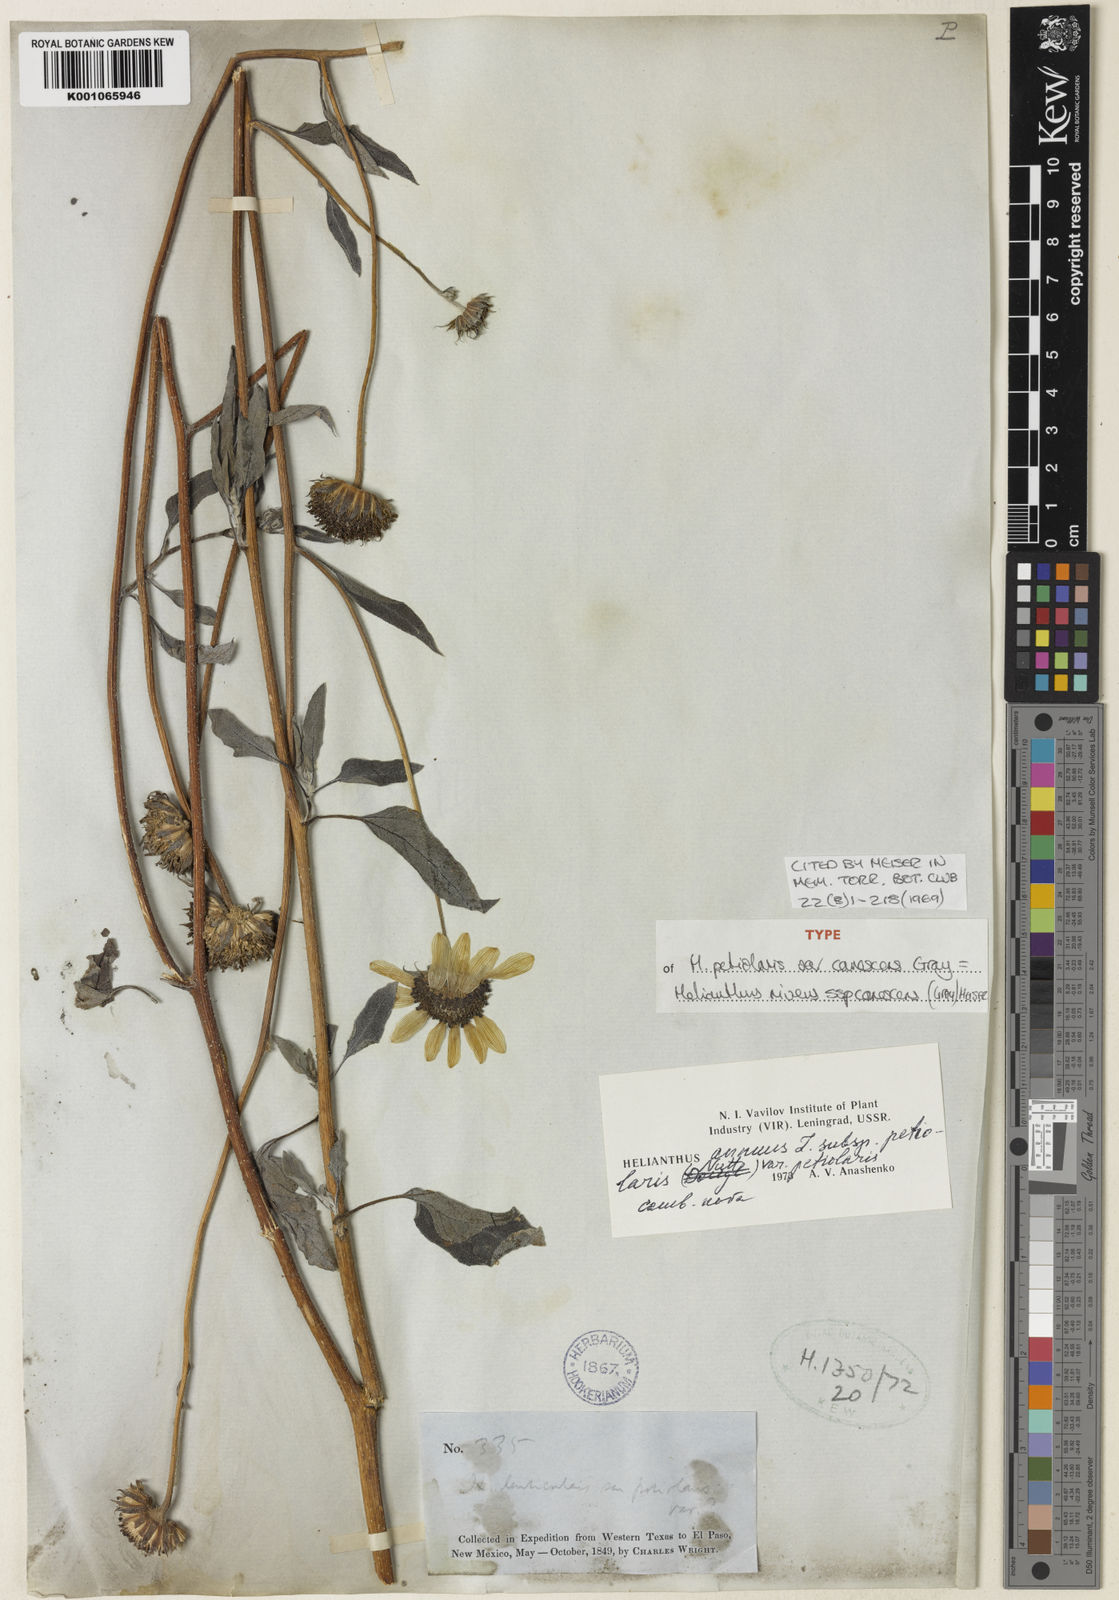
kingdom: Plantae
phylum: Tracheophyta
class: Magnoliopsida
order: Asterales
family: Asteraceae
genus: Helianthus
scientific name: Helianthus petiolaris
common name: Lesser sunflower
